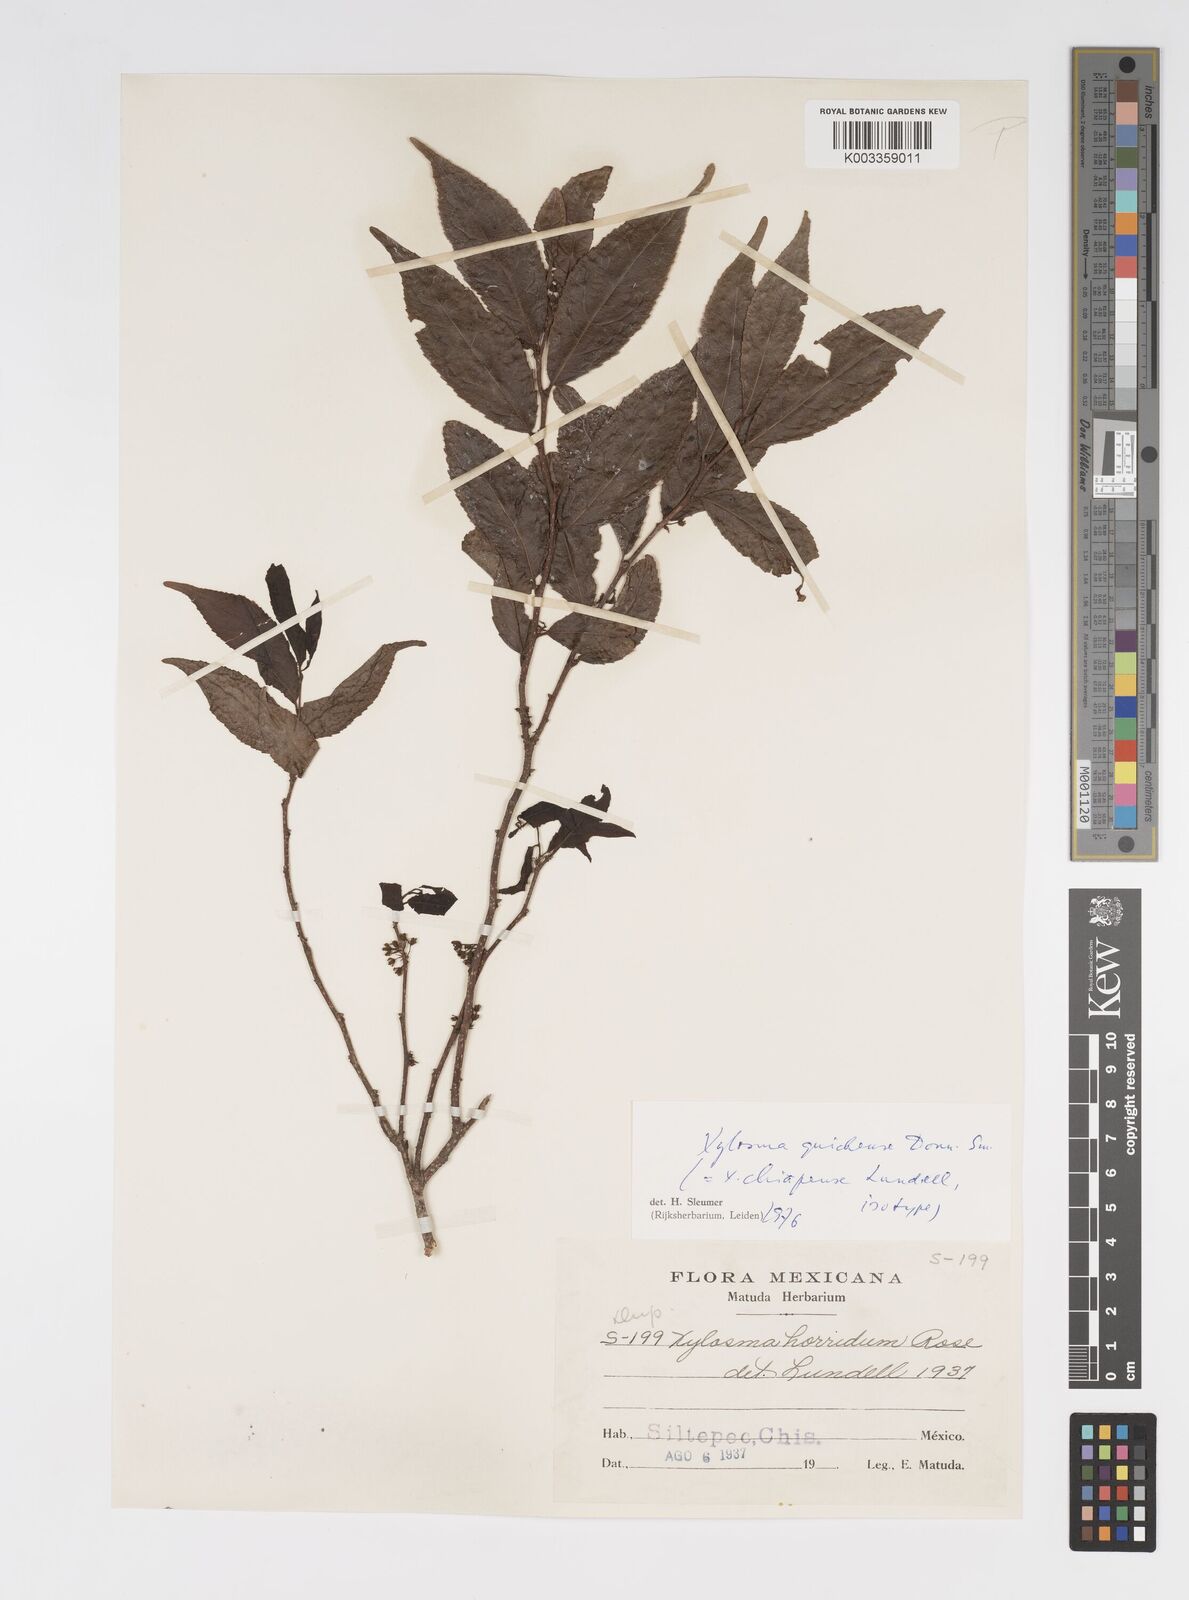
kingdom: Plantae
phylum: Tracheophyta
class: Magnoliopsida
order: Malpighiales
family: Salicaceae
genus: Xylosma
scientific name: Xylosma quichensis
